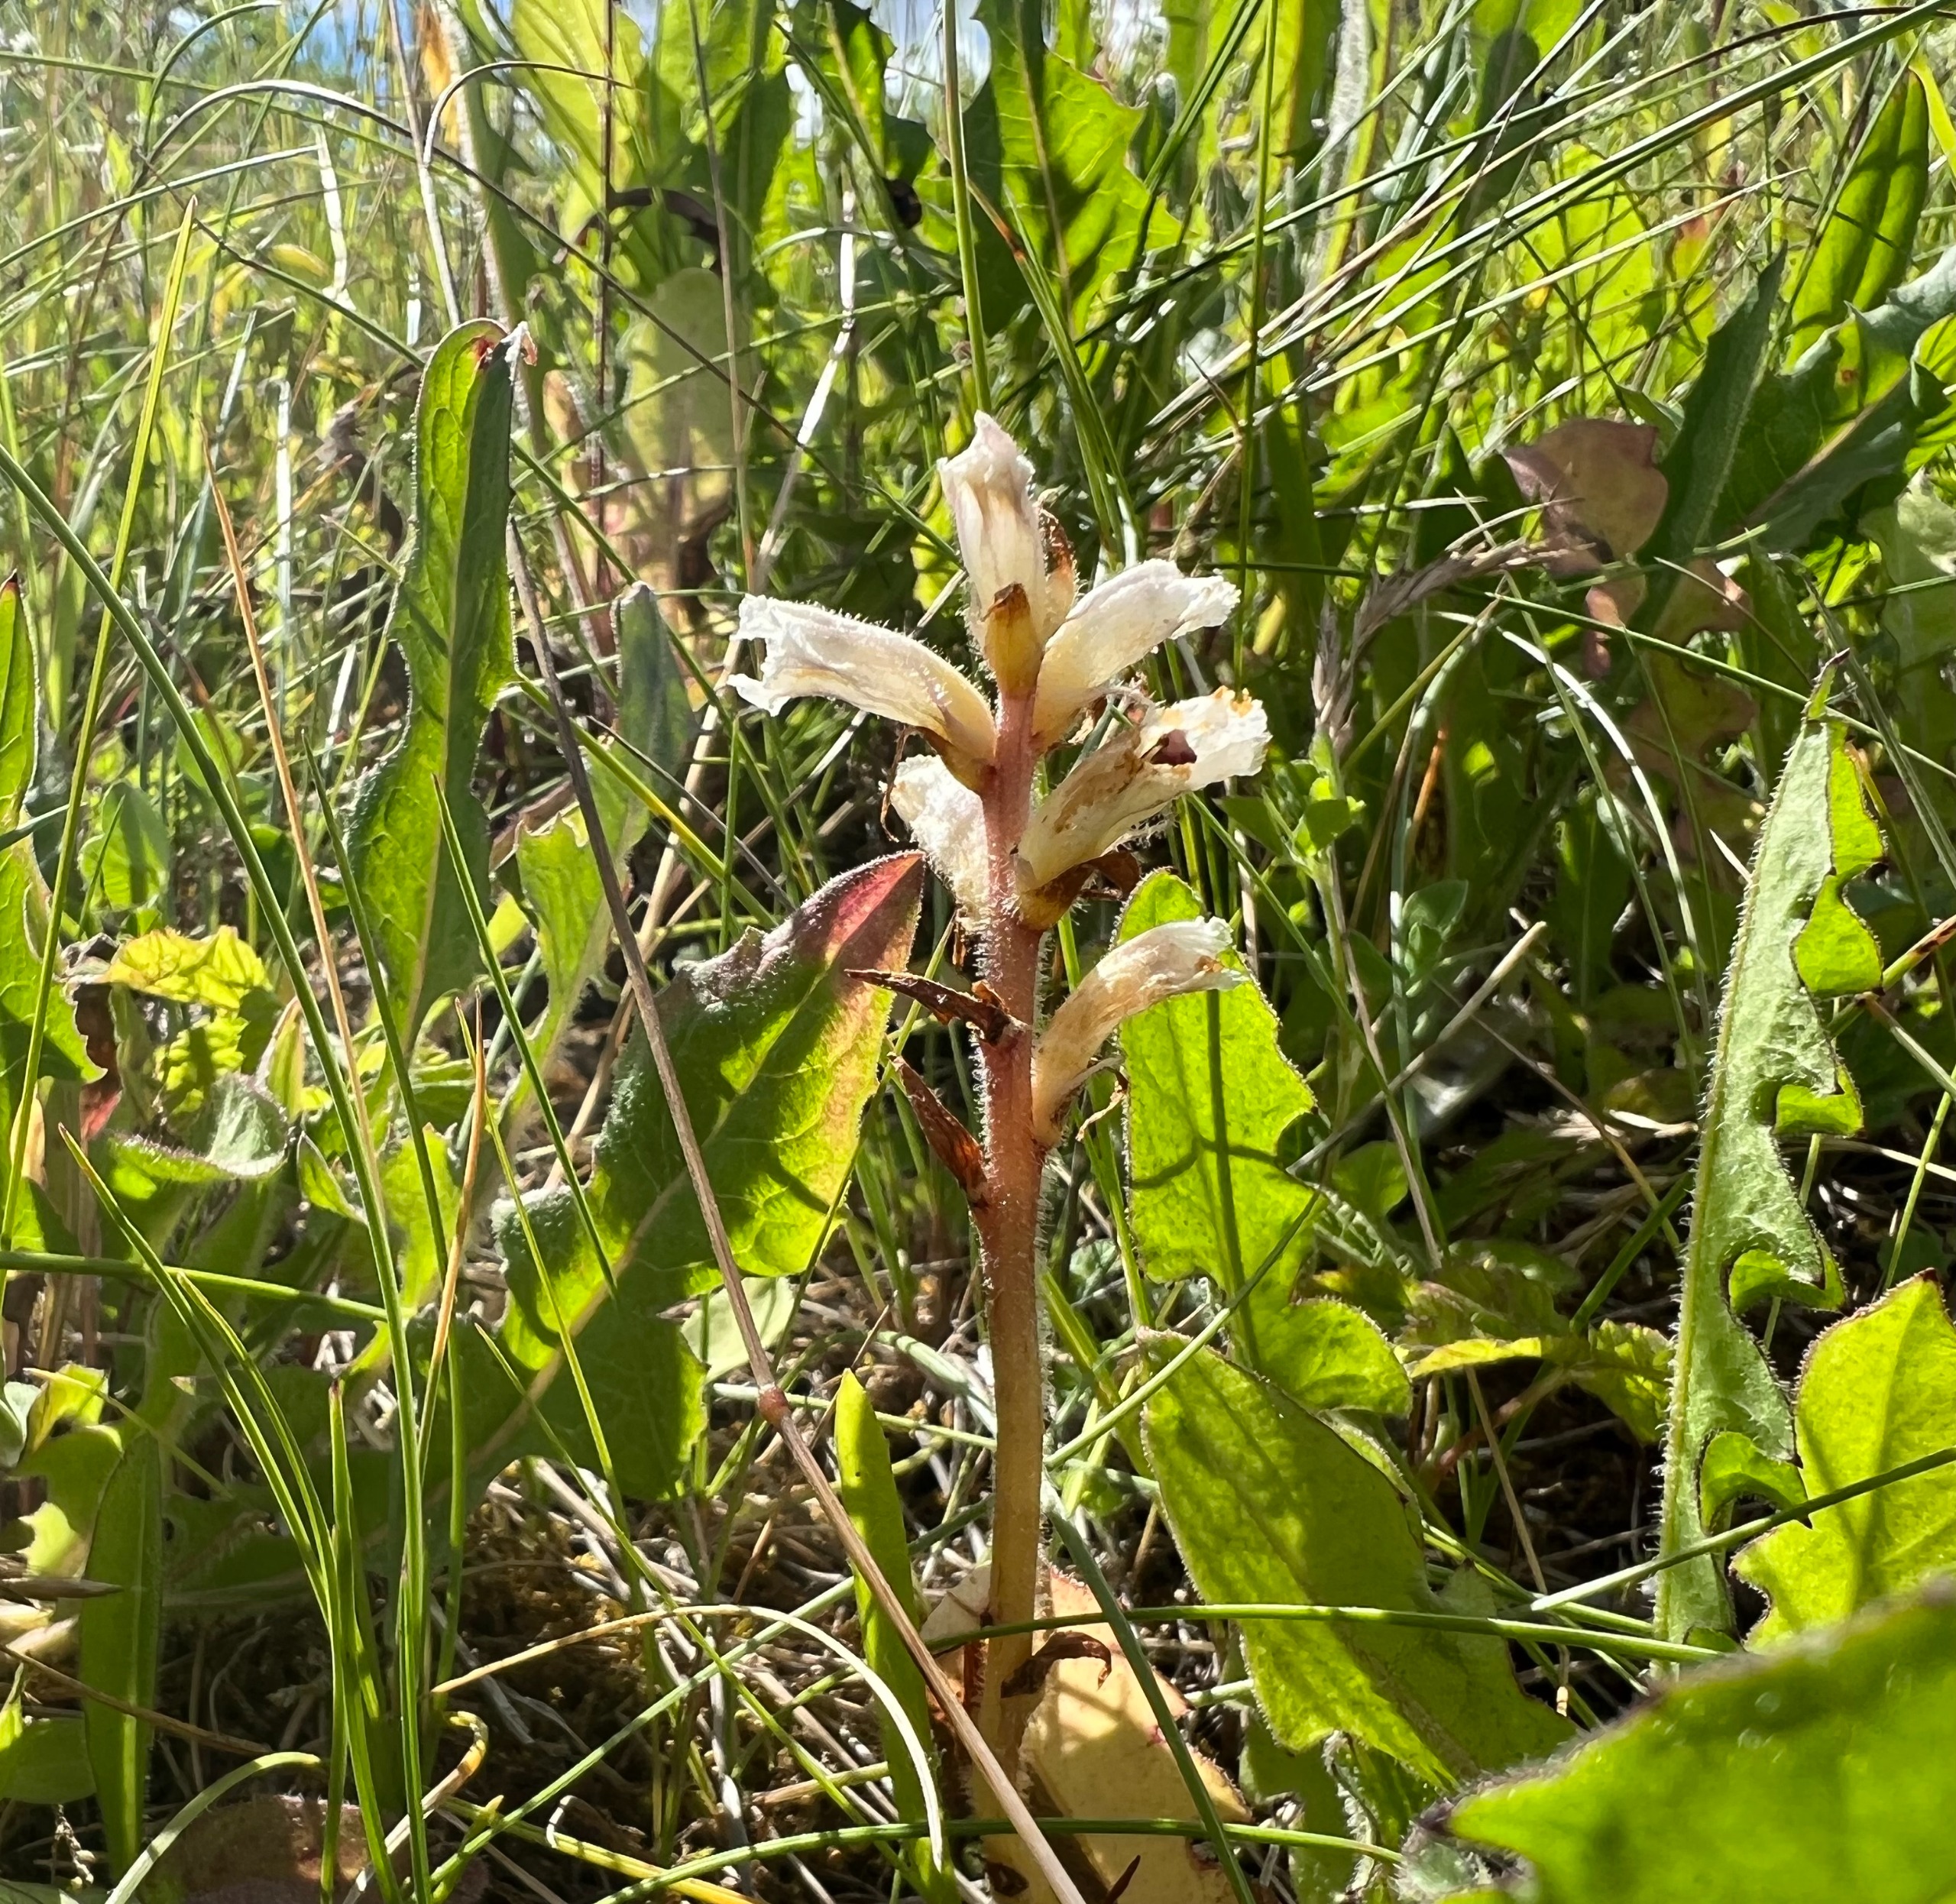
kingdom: Plantae
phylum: Tracheophyta
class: Magnoliopsida
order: Lamiales
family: Orobanchaceae
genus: Orobanche
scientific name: Orobanche picridis
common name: Bittermælk-gyvelkvæler
